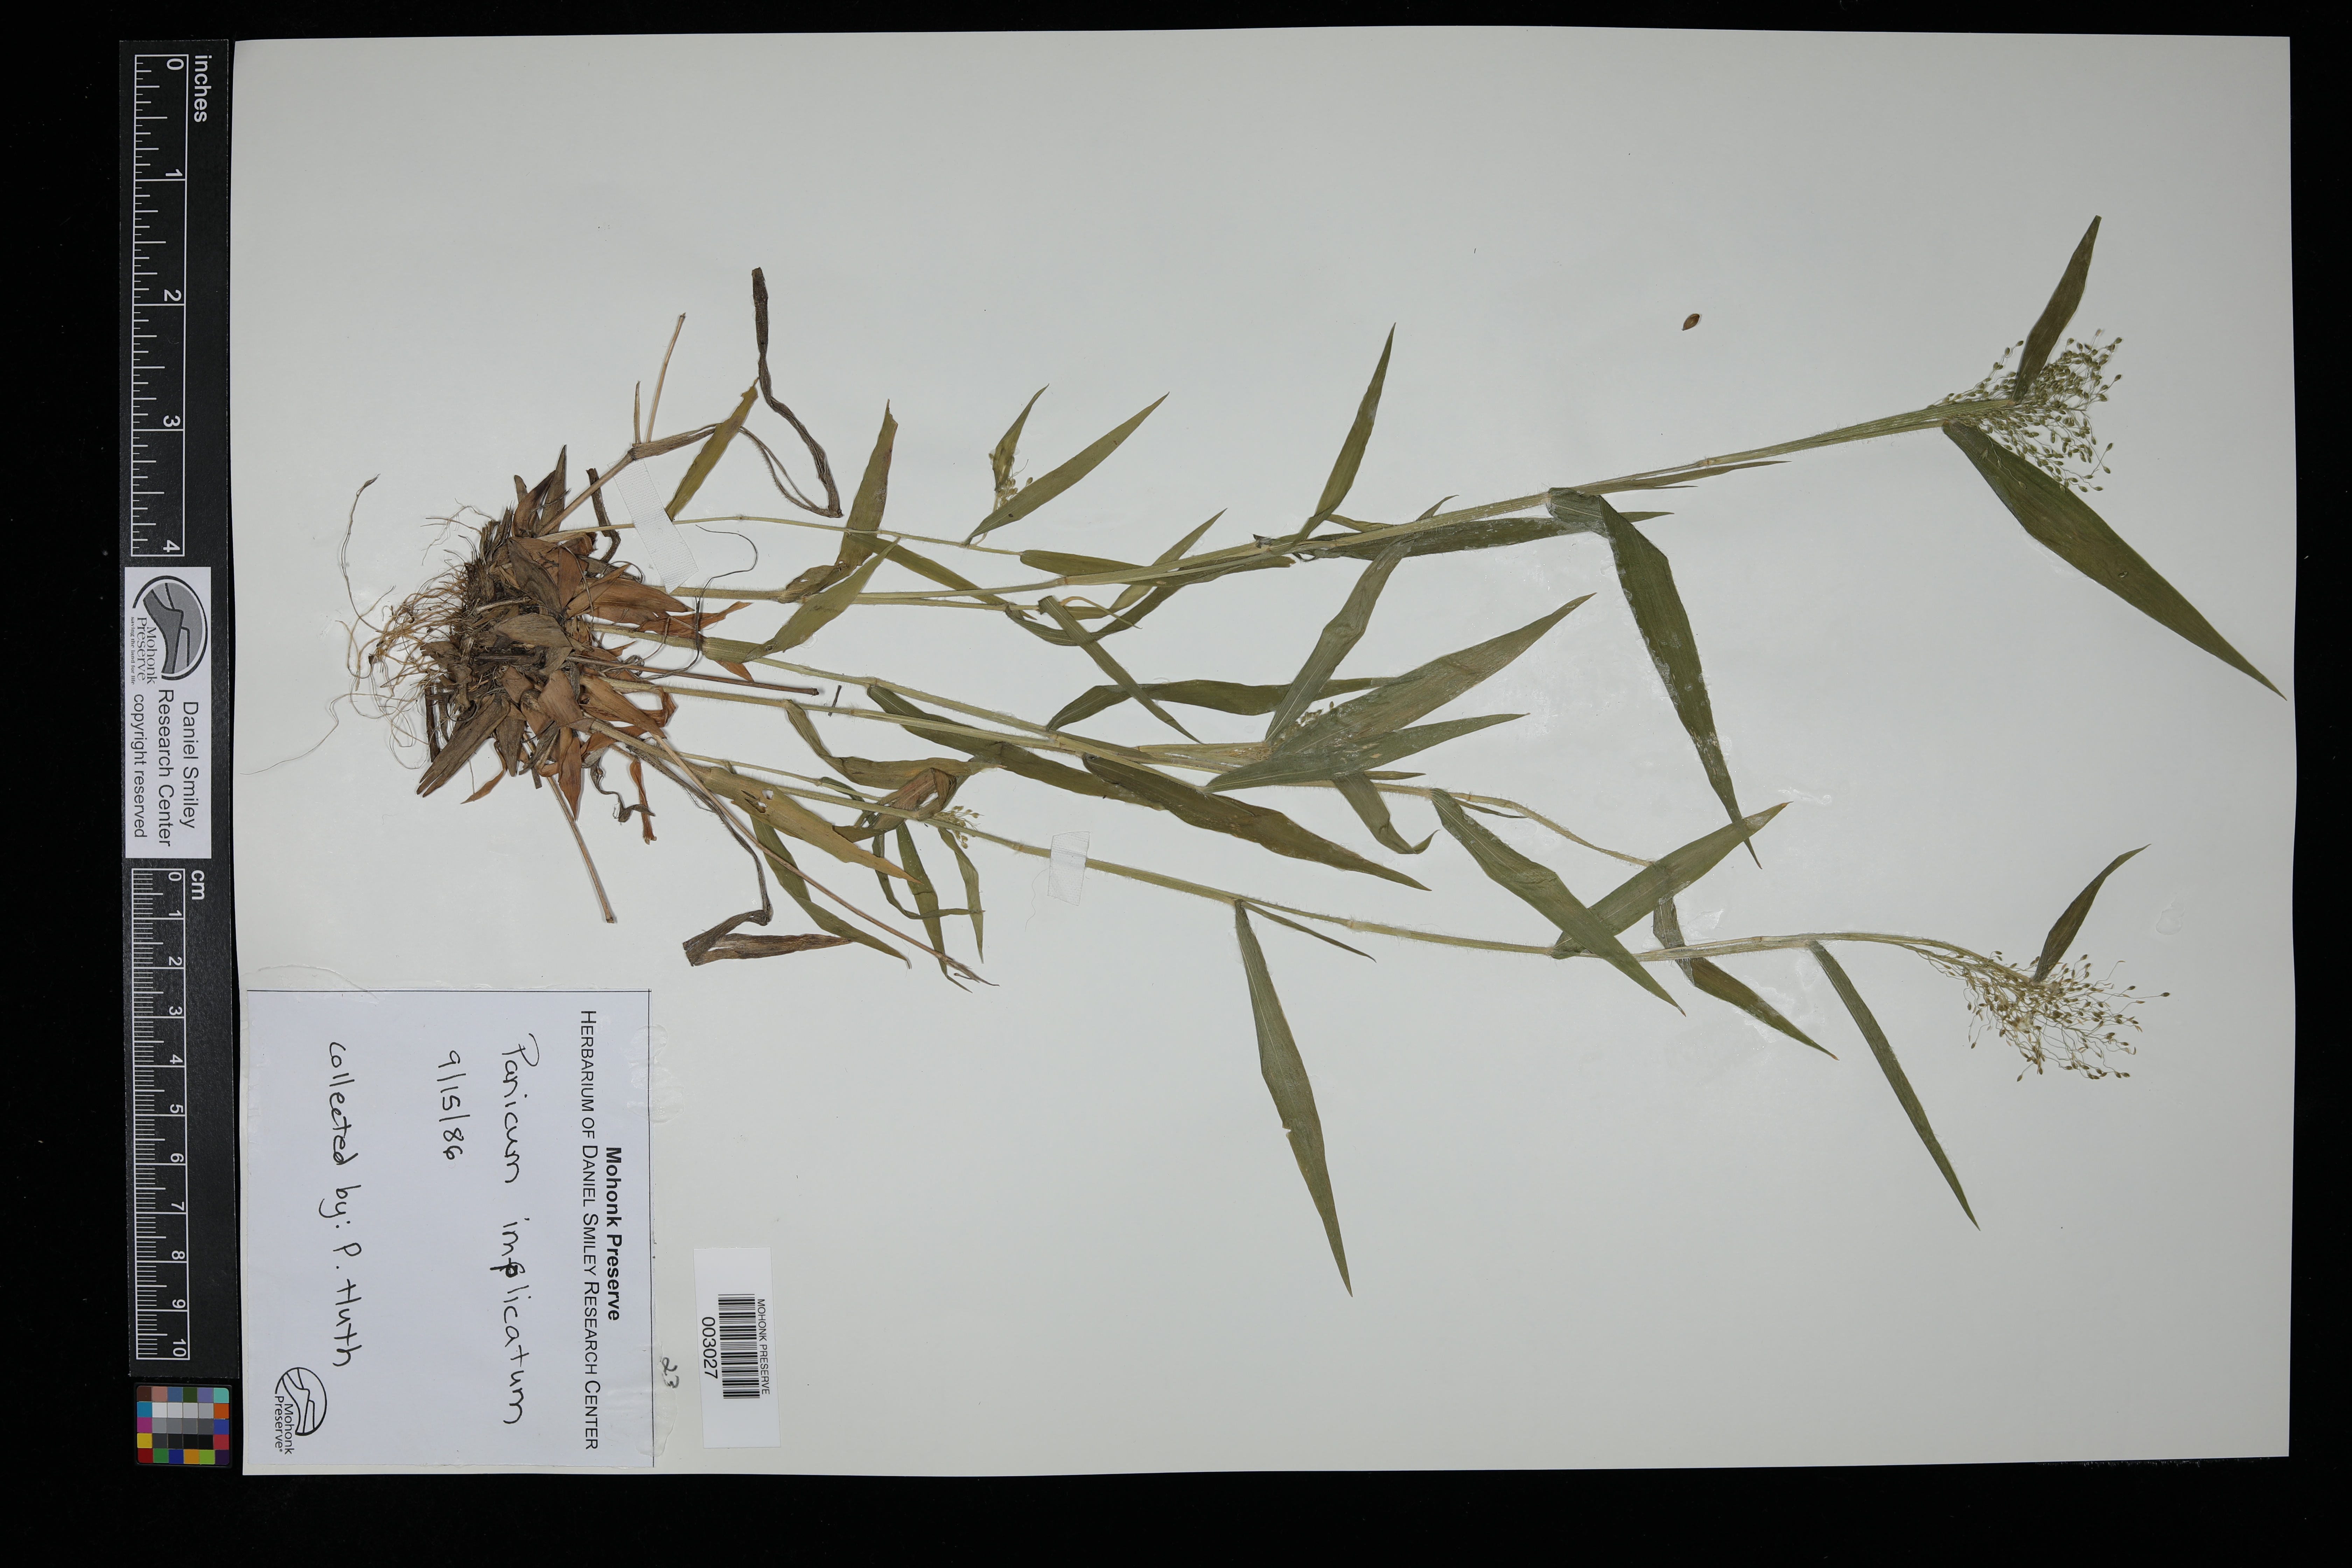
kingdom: Plantae
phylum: Tracheophyta
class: Liliopsida
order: Poales
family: Poaceae
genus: Dichanthelium
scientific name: Dichanthelium acuminatum
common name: Hairy panic grass
